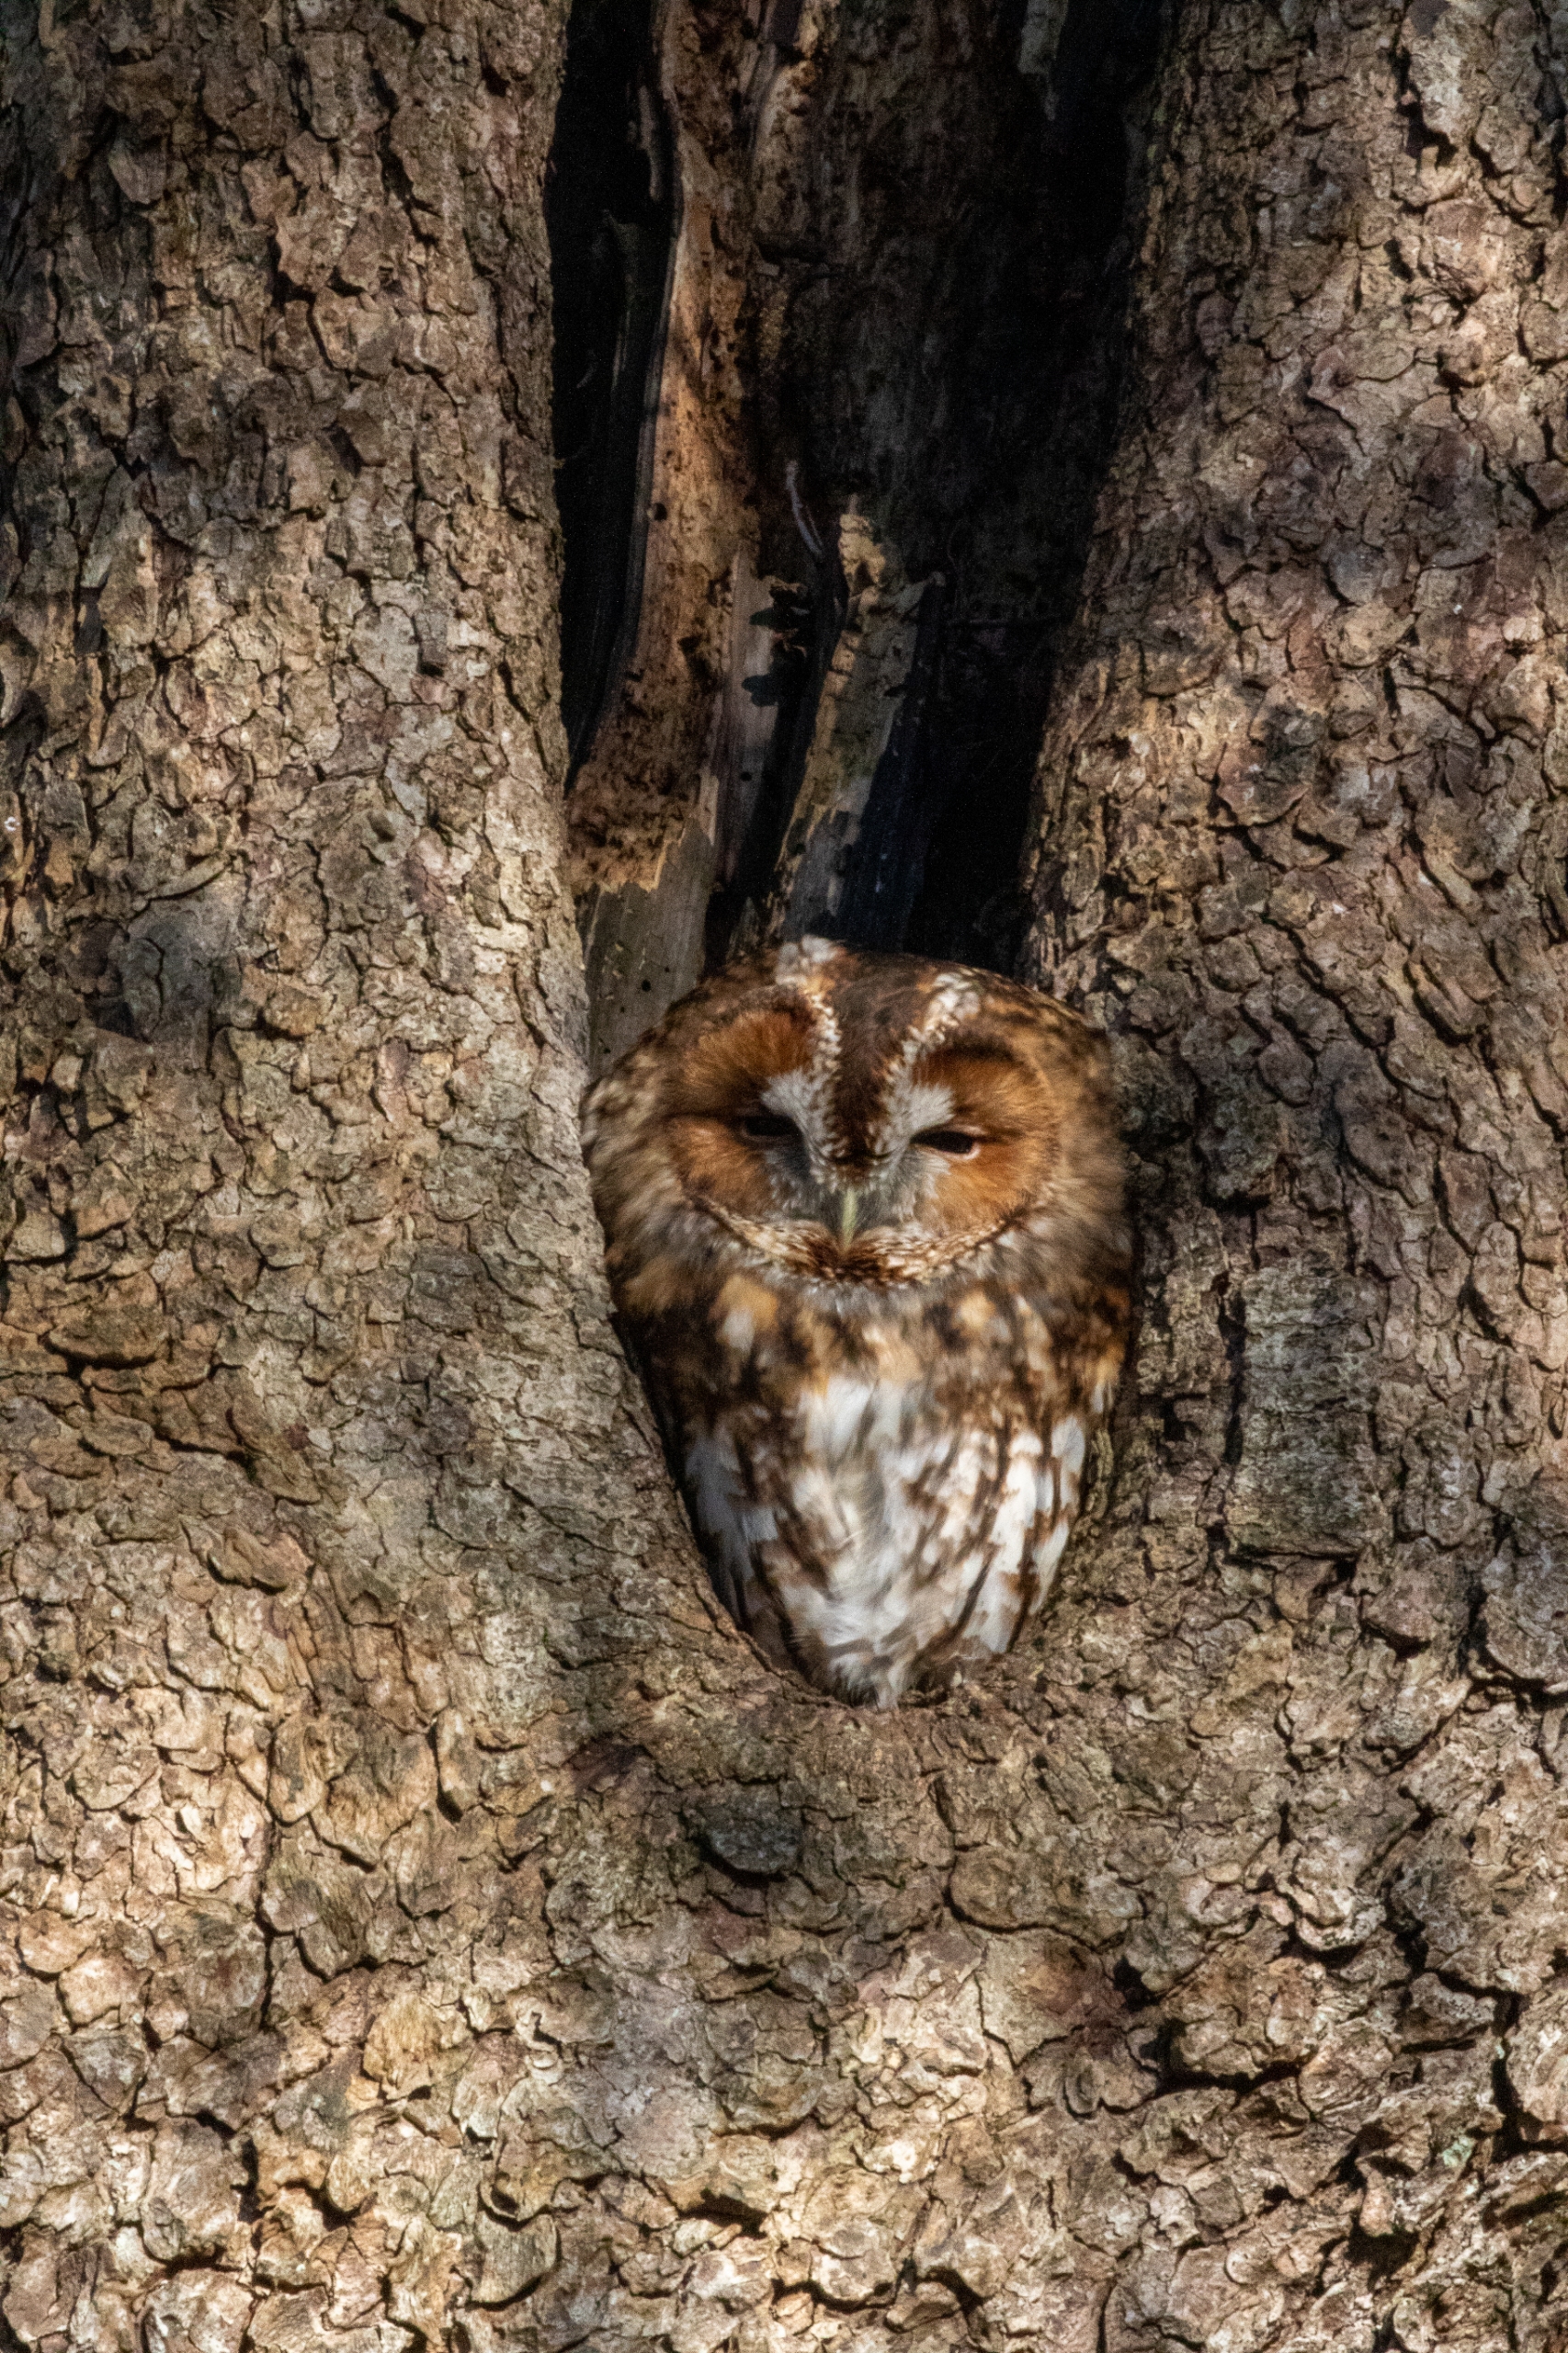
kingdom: Animalia
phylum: Chordata
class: Aves
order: Strigiformes
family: Strigidae
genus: Strix
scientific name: Strix aluco
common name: Natugle
